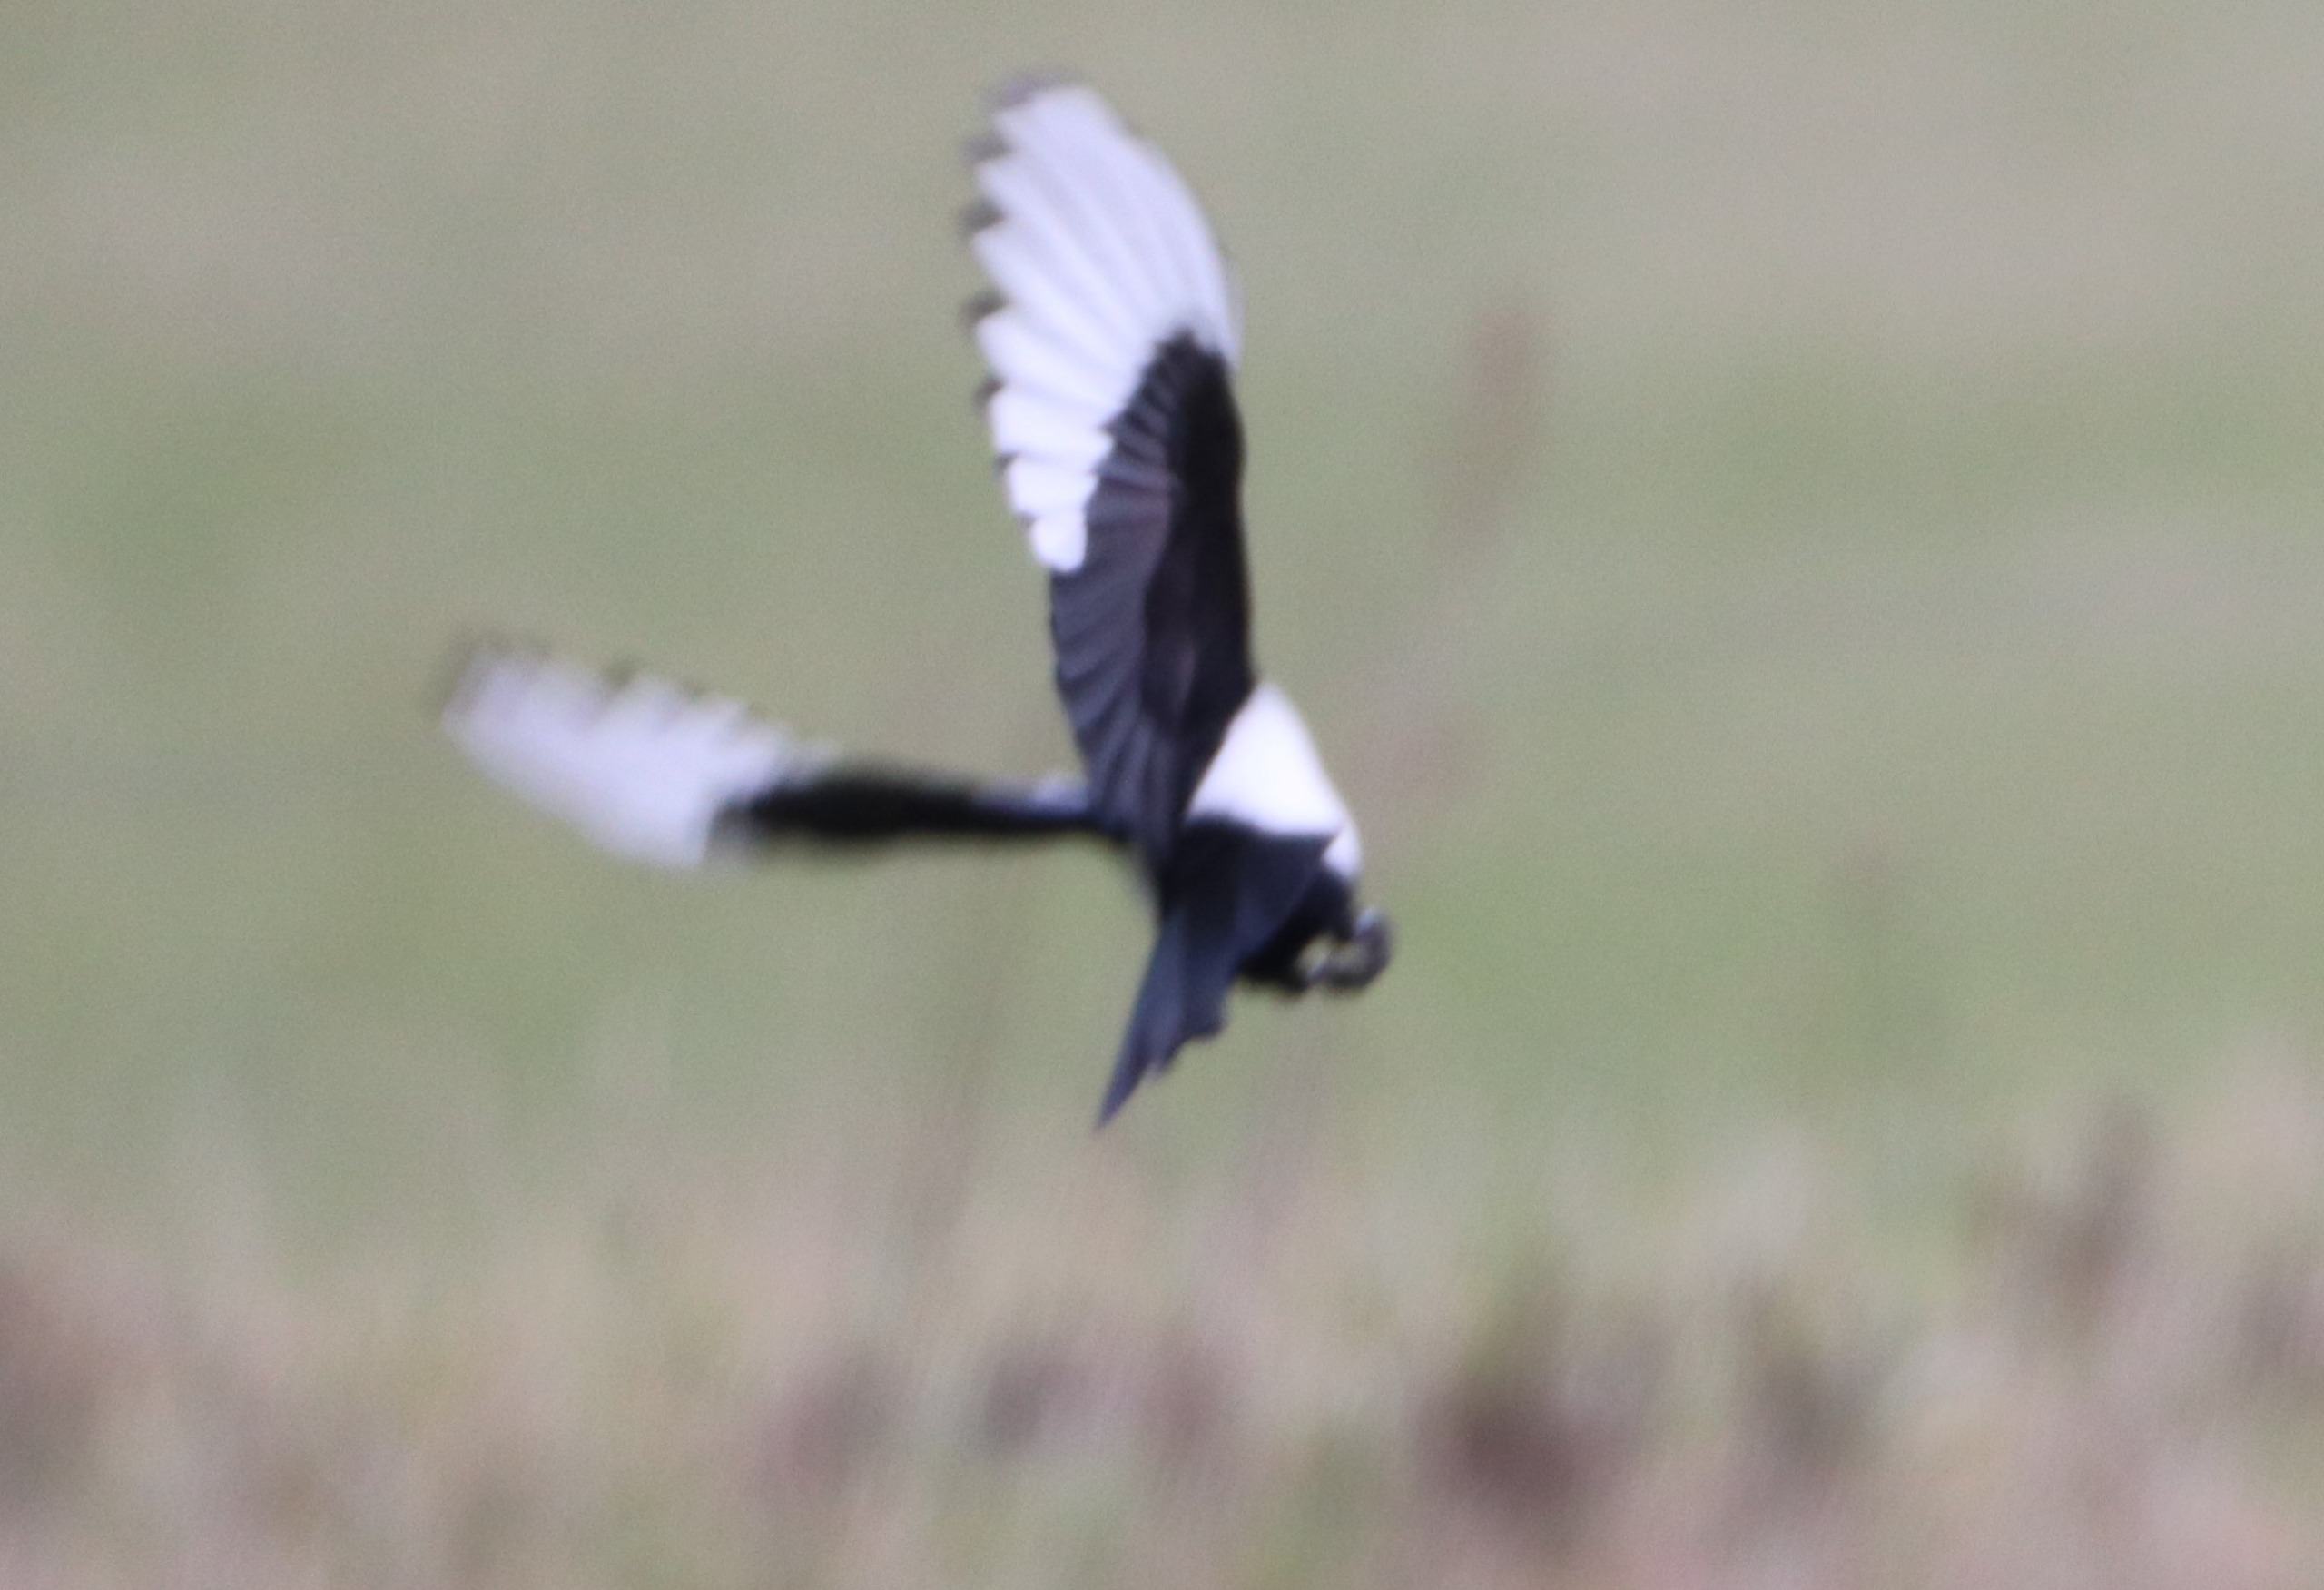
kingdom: Animalia
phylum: Chordata
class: Aves
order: Passeriformes
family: Corvidae
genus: Pica
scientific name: Pica pica
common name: Husskade
